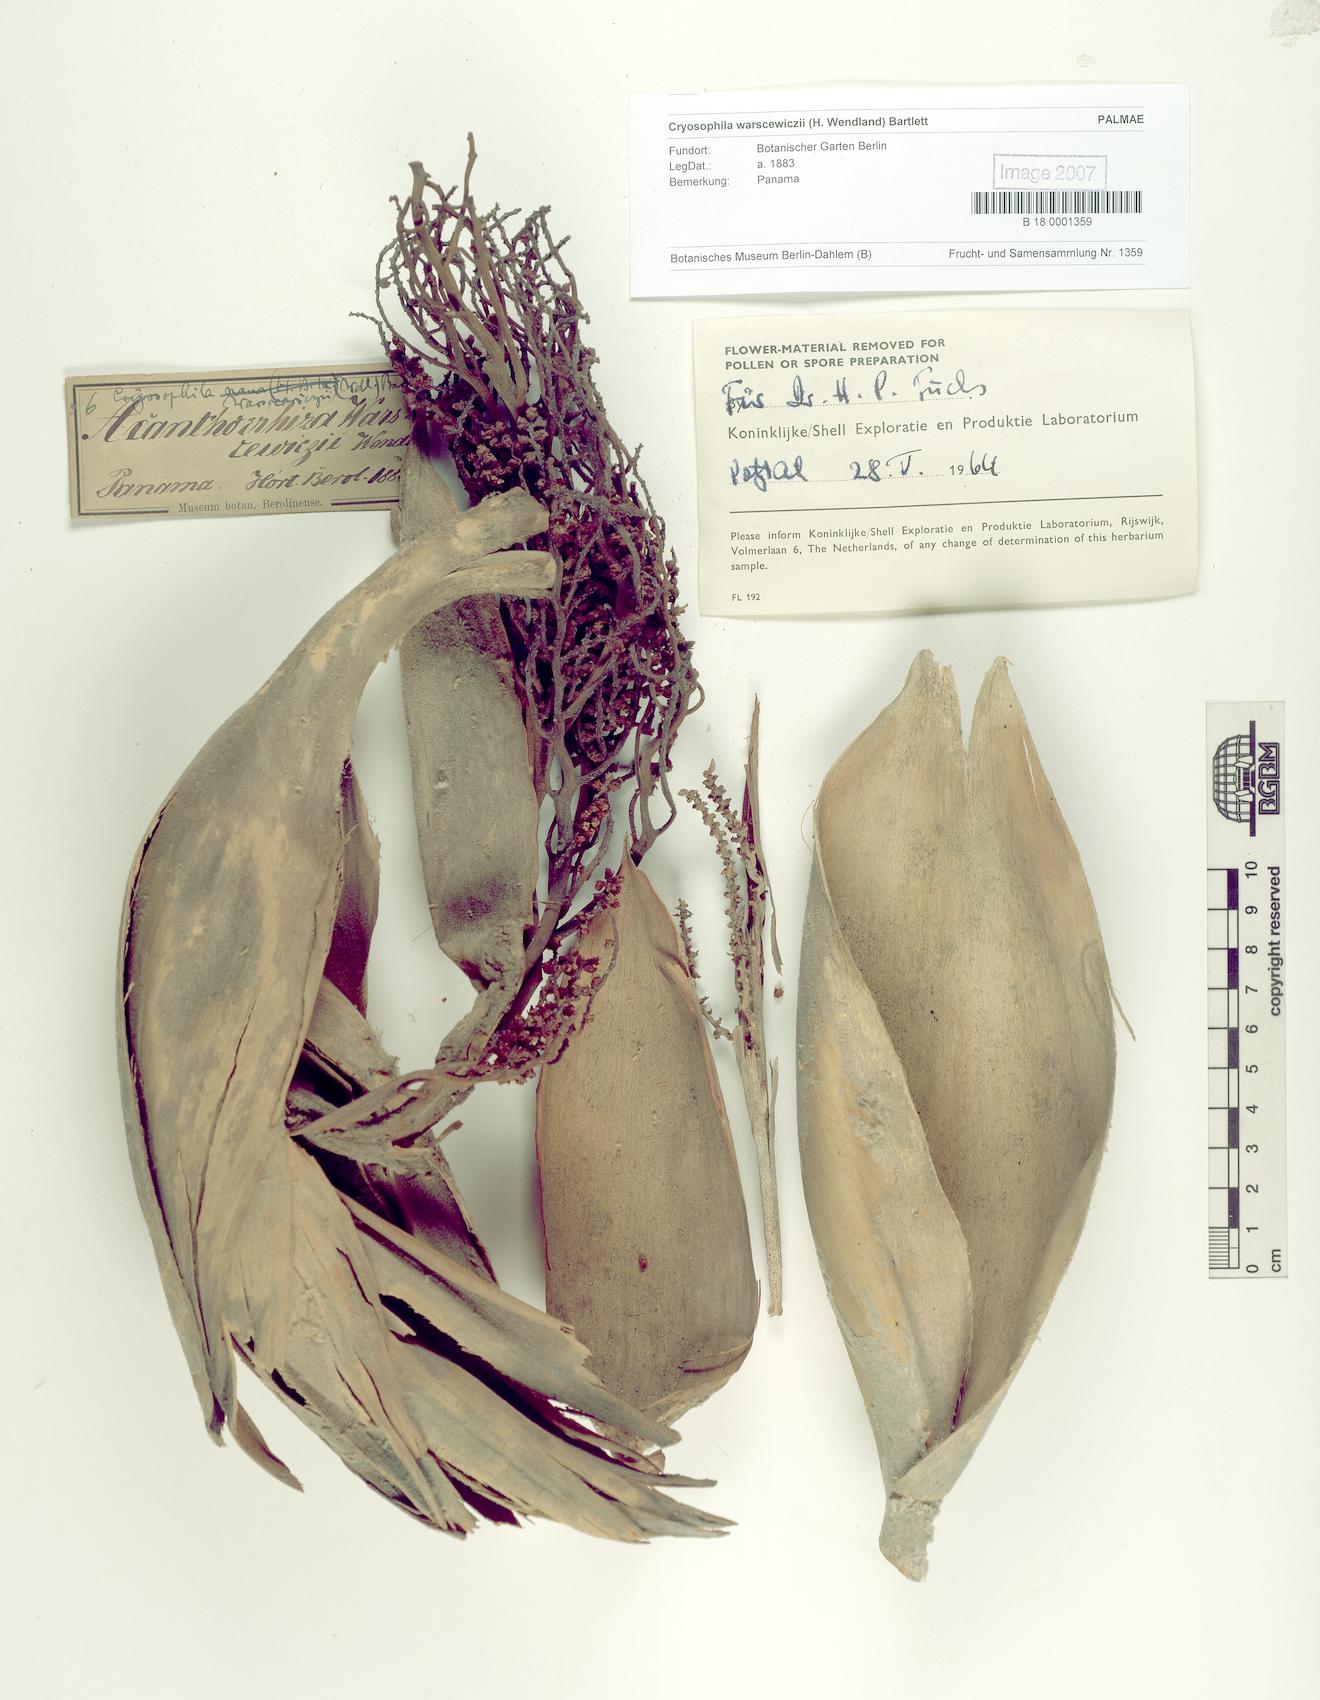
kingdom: Plantae
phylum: Tracheophyta
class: Liliopsida
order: Arecales
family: Arecaceae
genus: Cryosophila
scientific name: Cryosophila warscewiczii
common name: Root-spine palm
